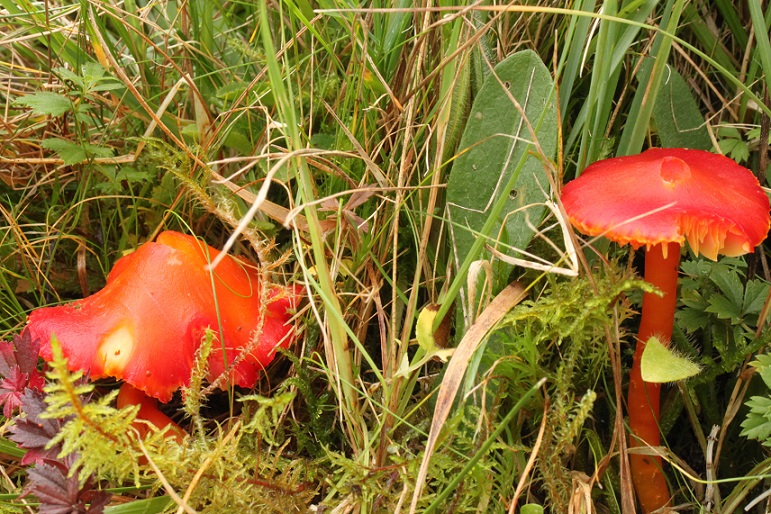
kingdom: Fungi
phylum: Basidiomycota
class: Agaricomycetes
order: Agaricales
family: Hygrophoraceae
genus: Hygrocybe
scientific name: Hygrocybe coccinea
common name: cinnober-vokshat
